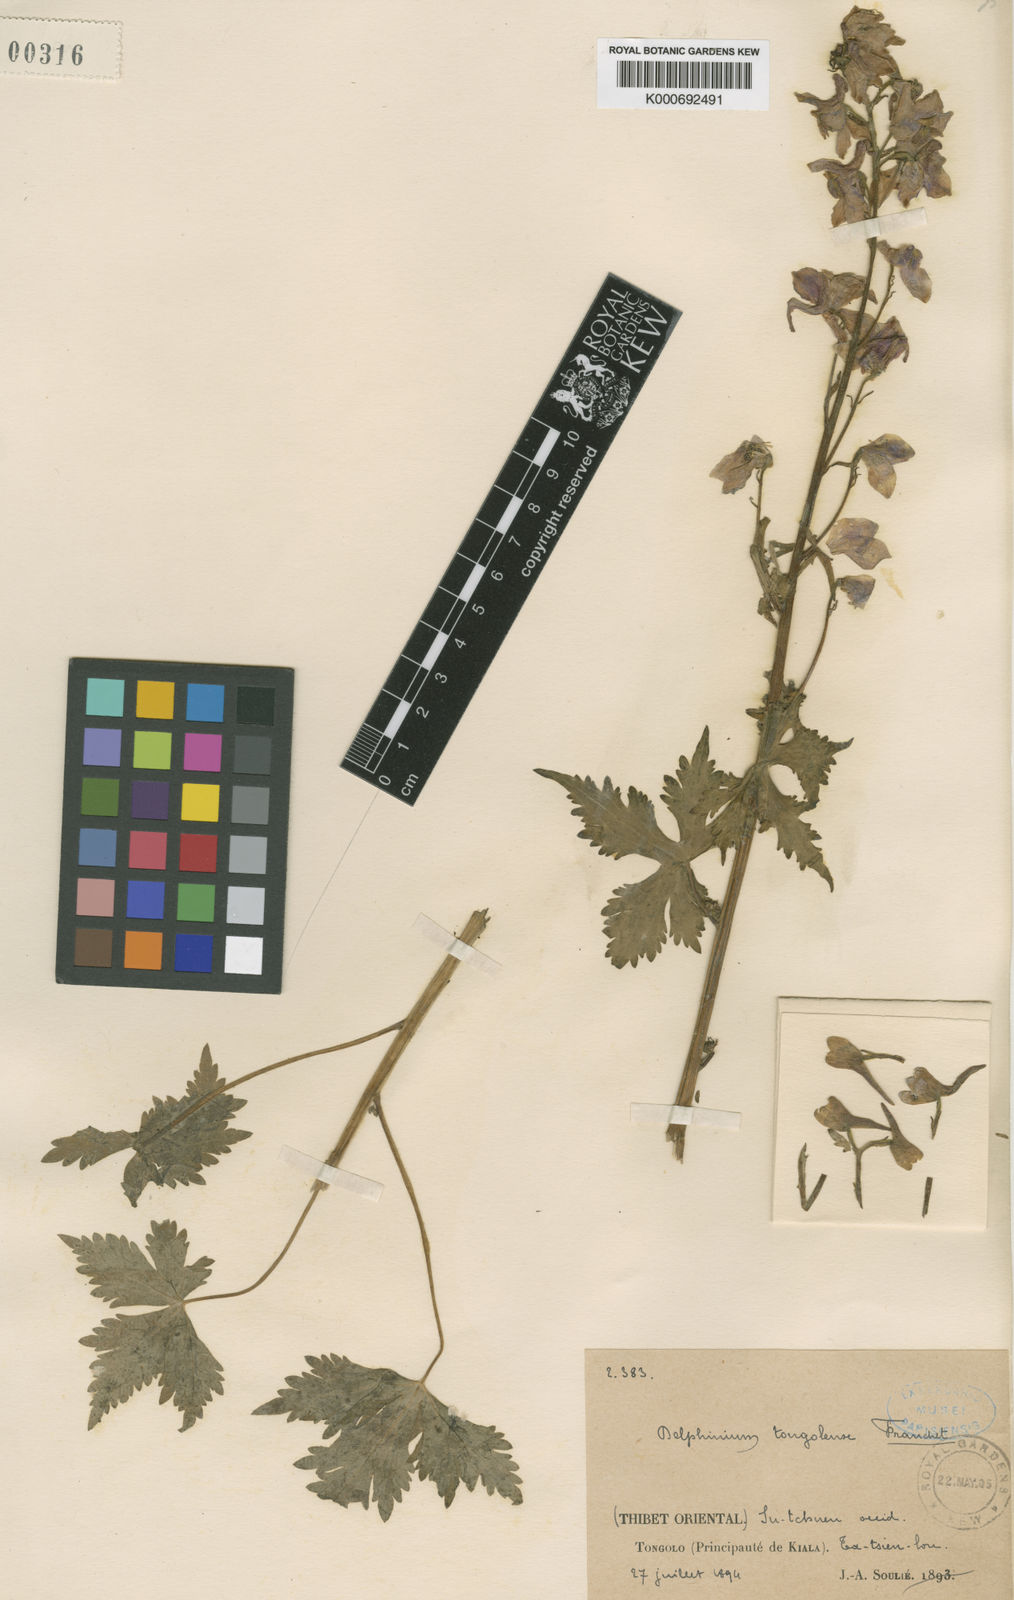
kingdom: Plantae
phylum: Tracheophyta
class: Magnoliopsida
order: Ranunculales
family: Ranunculaceae
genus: Delphinium
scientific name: Delphinium tongolense
